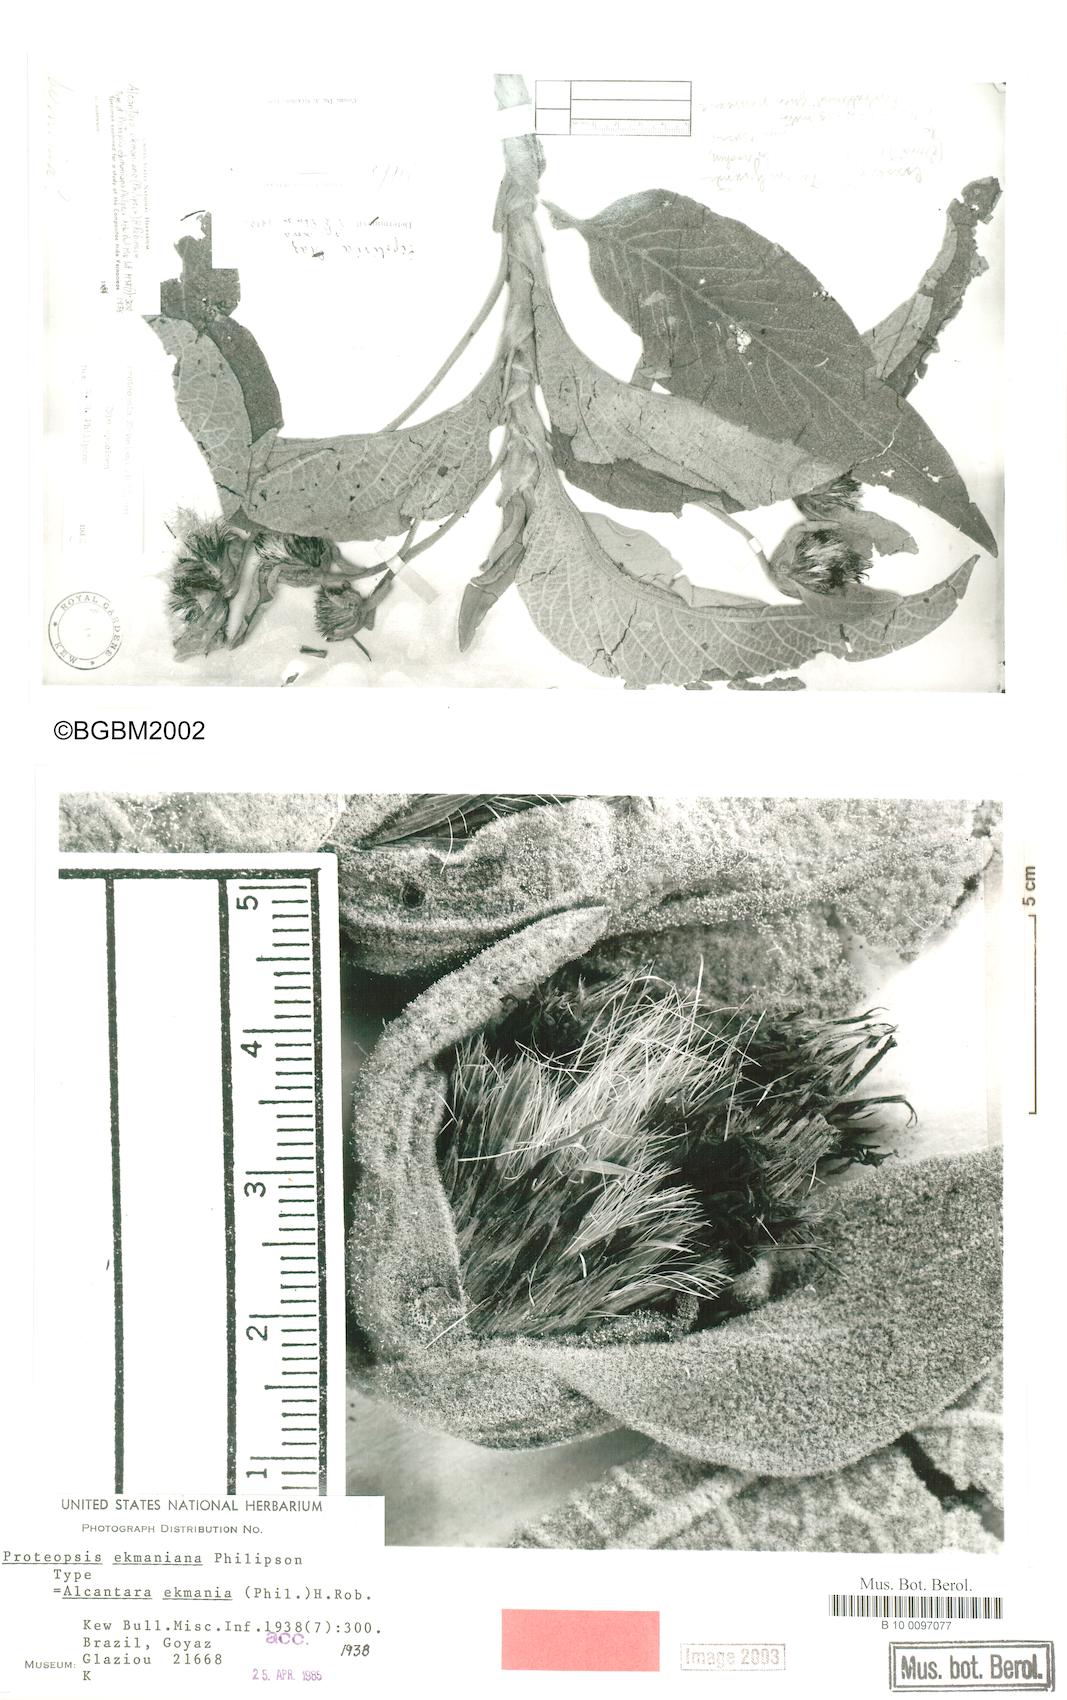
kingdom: Plantae
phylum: Tracheophyta
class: Magnoliopsida
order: Asterales
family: Asteraceae
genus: Heterocoma
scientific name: Heterocoma ekmaniana
